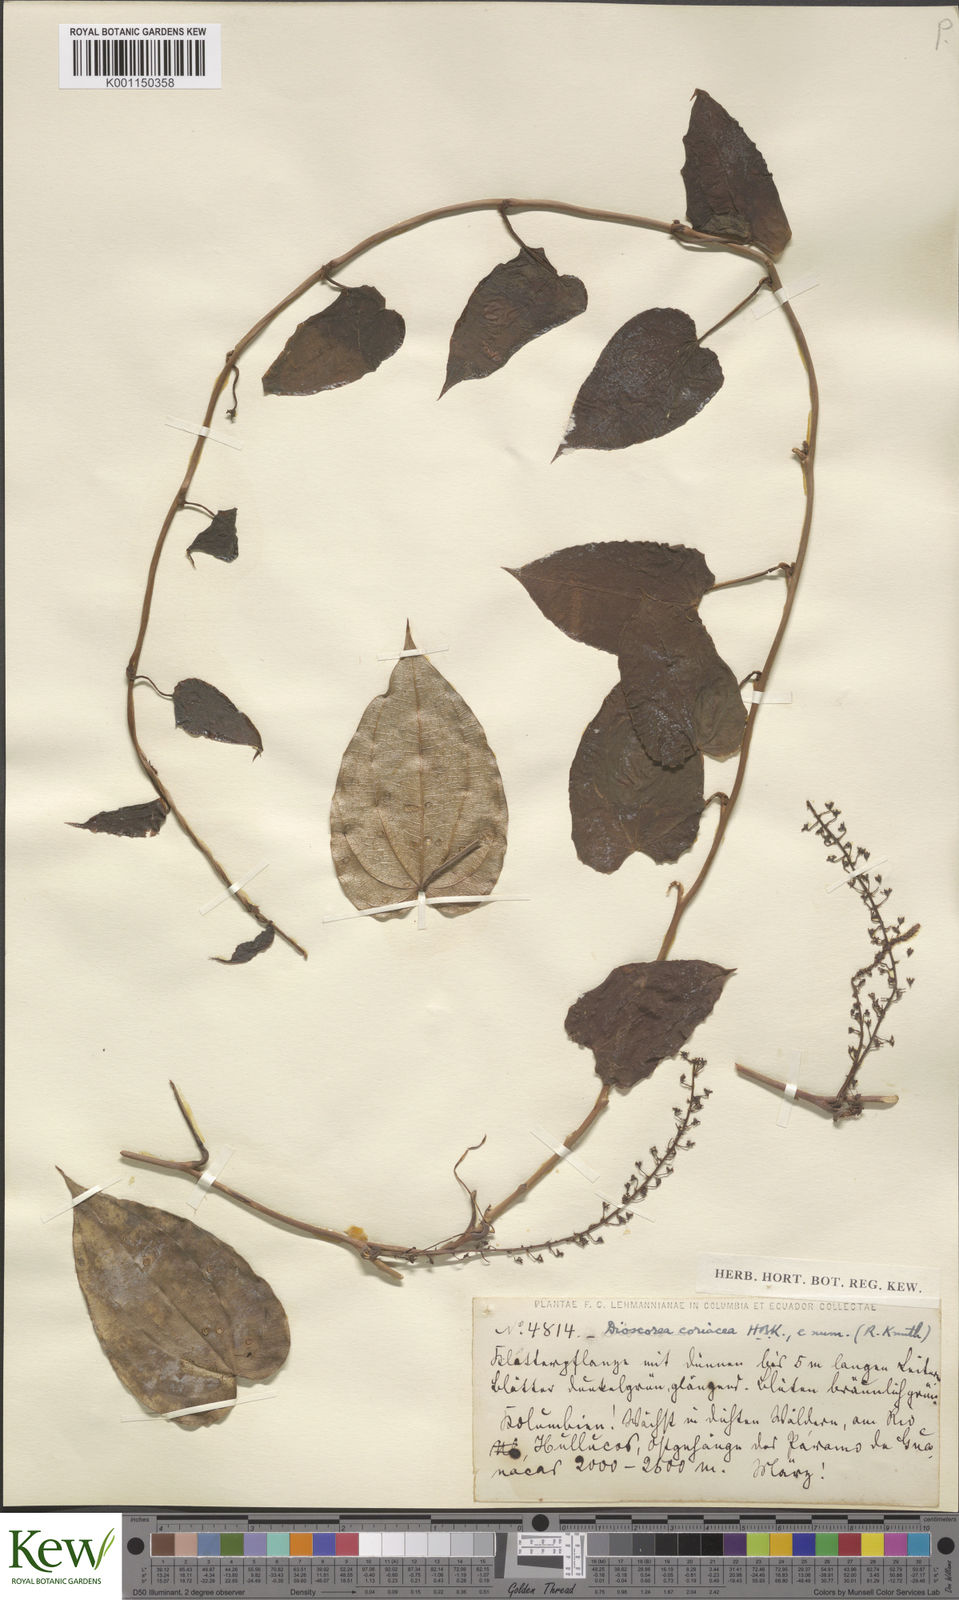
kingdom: Plantae
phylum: Tracheophyta
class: Liliopsida
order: Dioscoreales
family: Dioscoreaceae
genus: Dioscorea
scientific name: Dioscorea coriacea
